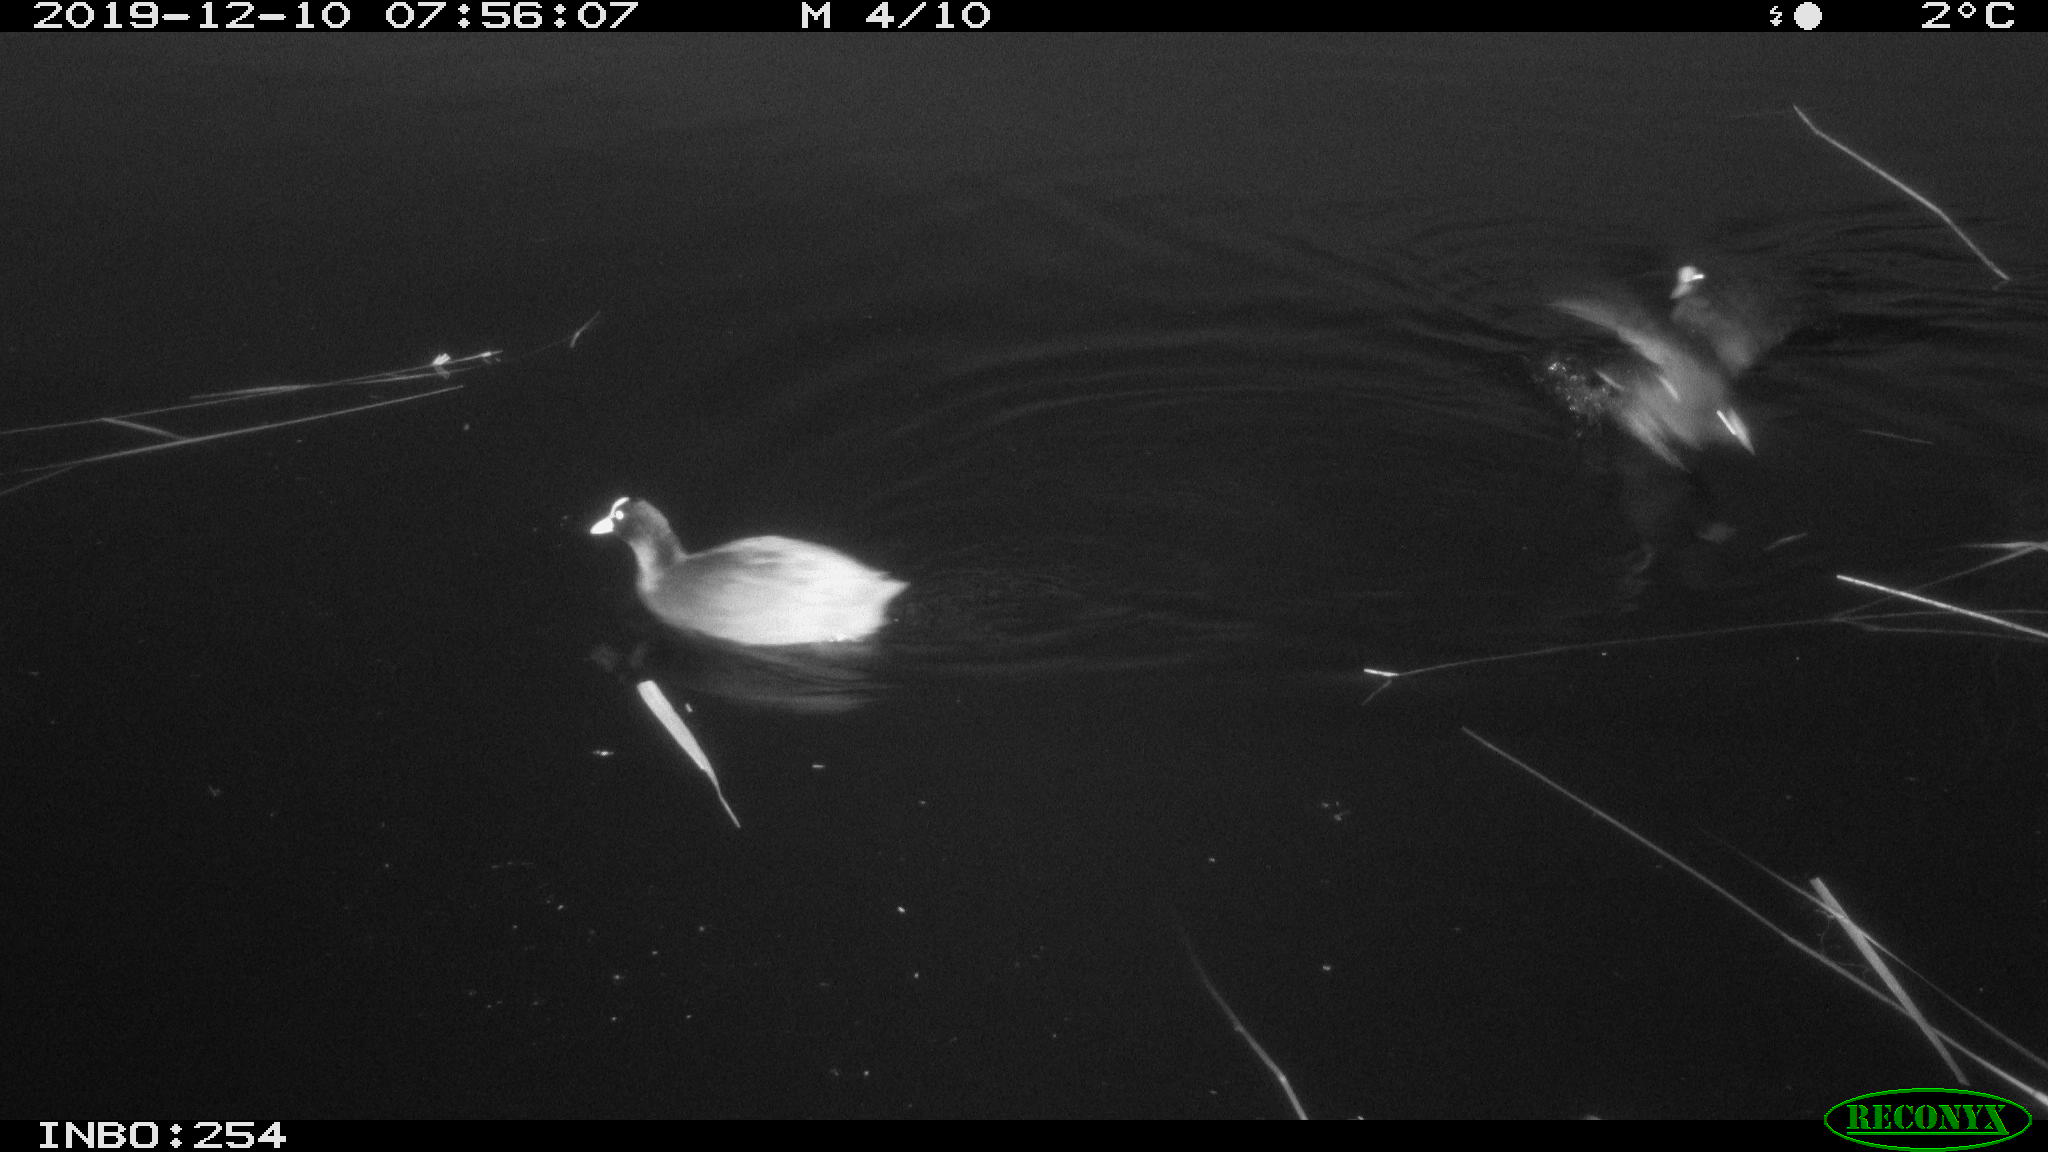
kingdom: Animalia
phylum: Chordata
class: Aves
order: Gruiformes
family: Rallidae
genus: Fulica
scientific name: Fulica atra
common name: Eurasian coot
